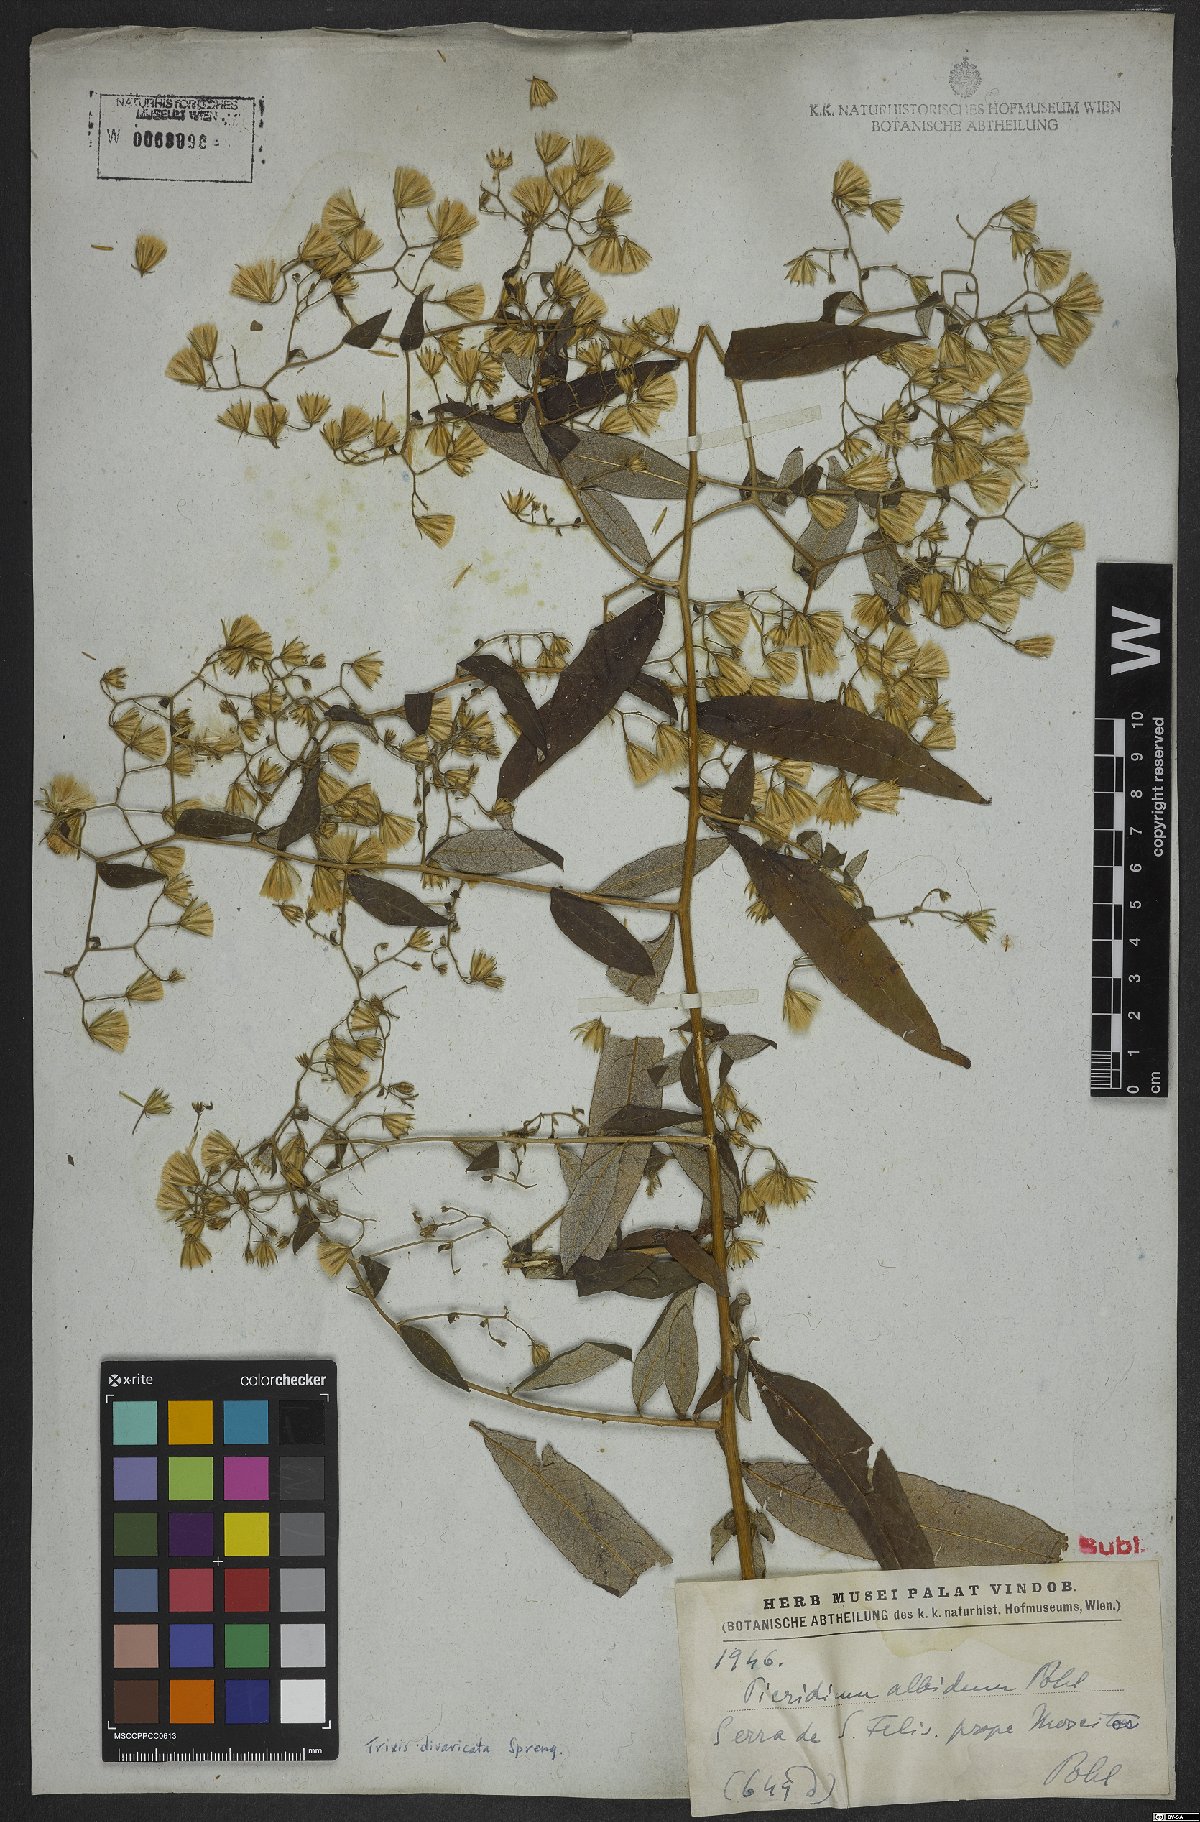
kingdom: Plantae
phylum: Tracheophyta
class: Magnoliopsida
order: Asterales
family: Asteraceae
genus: Trixis
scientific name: Trixis divaricata
